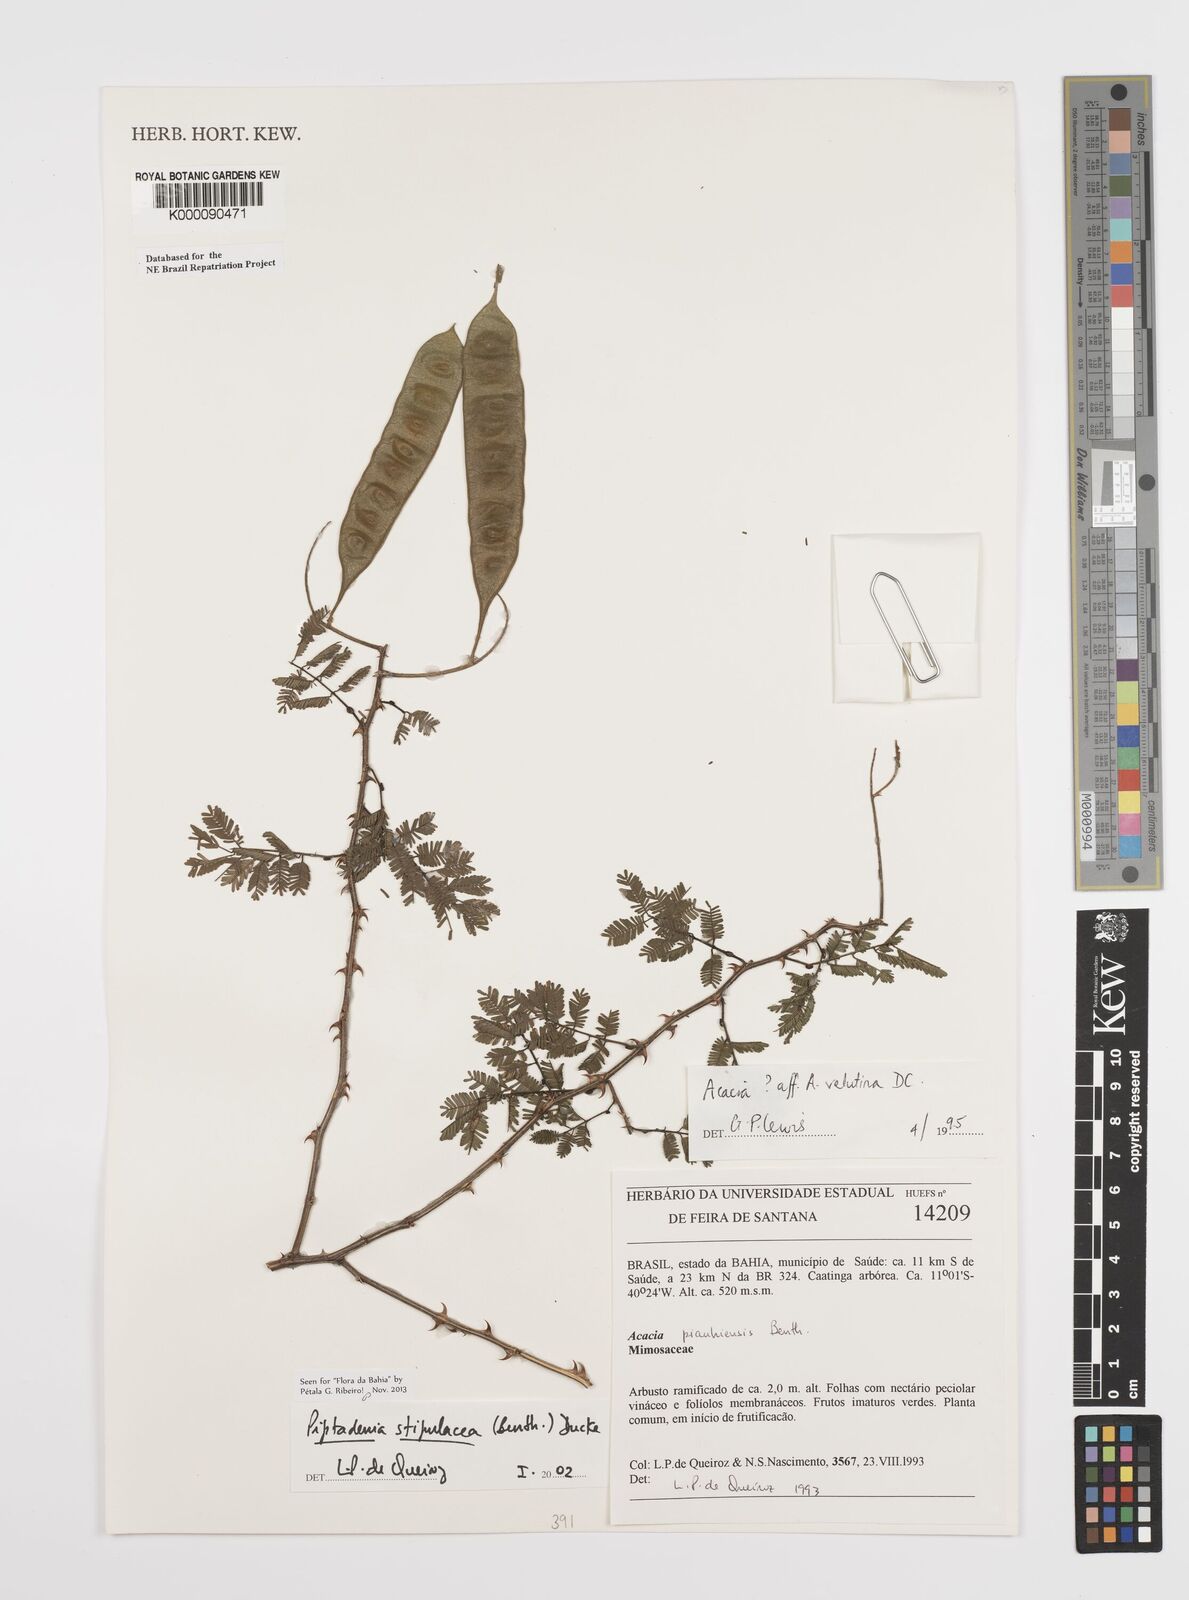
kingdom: Plantae
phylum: Tracheophyta
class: Magnoliopsida
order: Fabales
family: Fabaceae
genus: Piptadenia
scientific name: Piptadenia retusa
